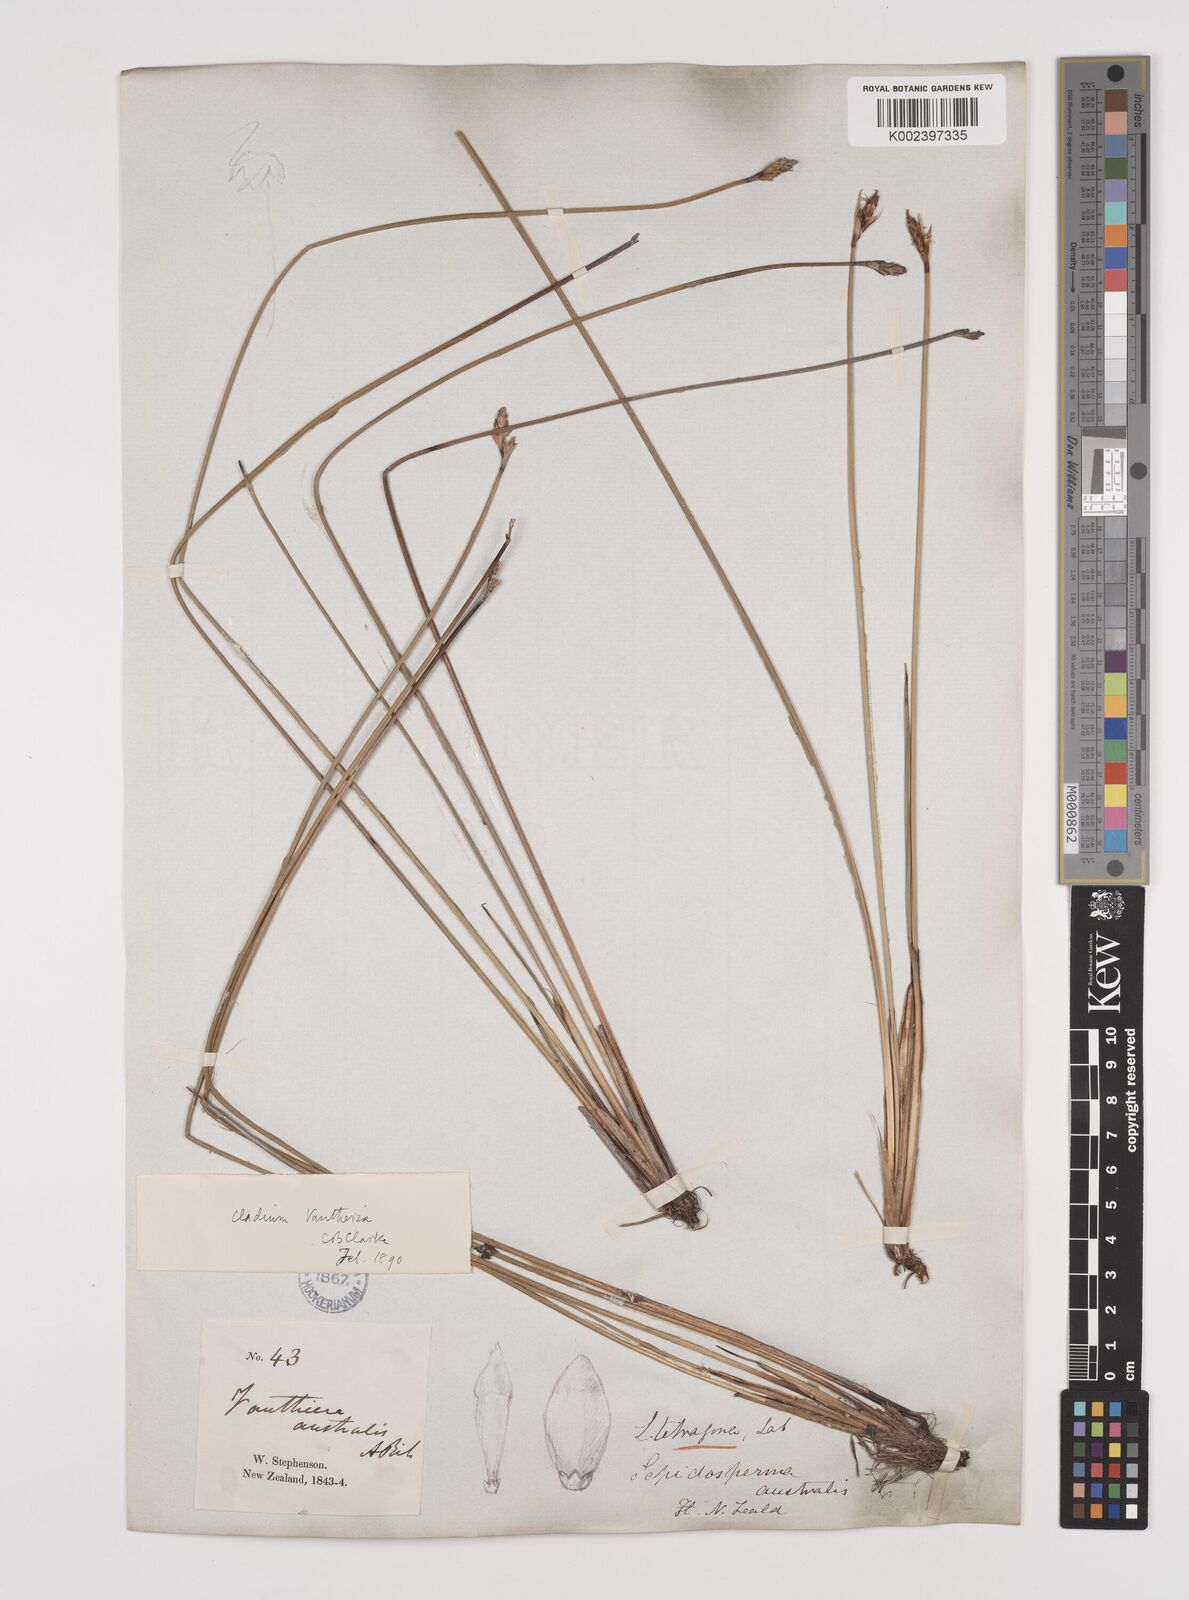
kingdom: Plantae
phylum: Tracheophyta
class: Liliopsida
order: Poales
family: Cyperaceae
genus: Lepidosperma
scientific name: Lepidosperma australe
